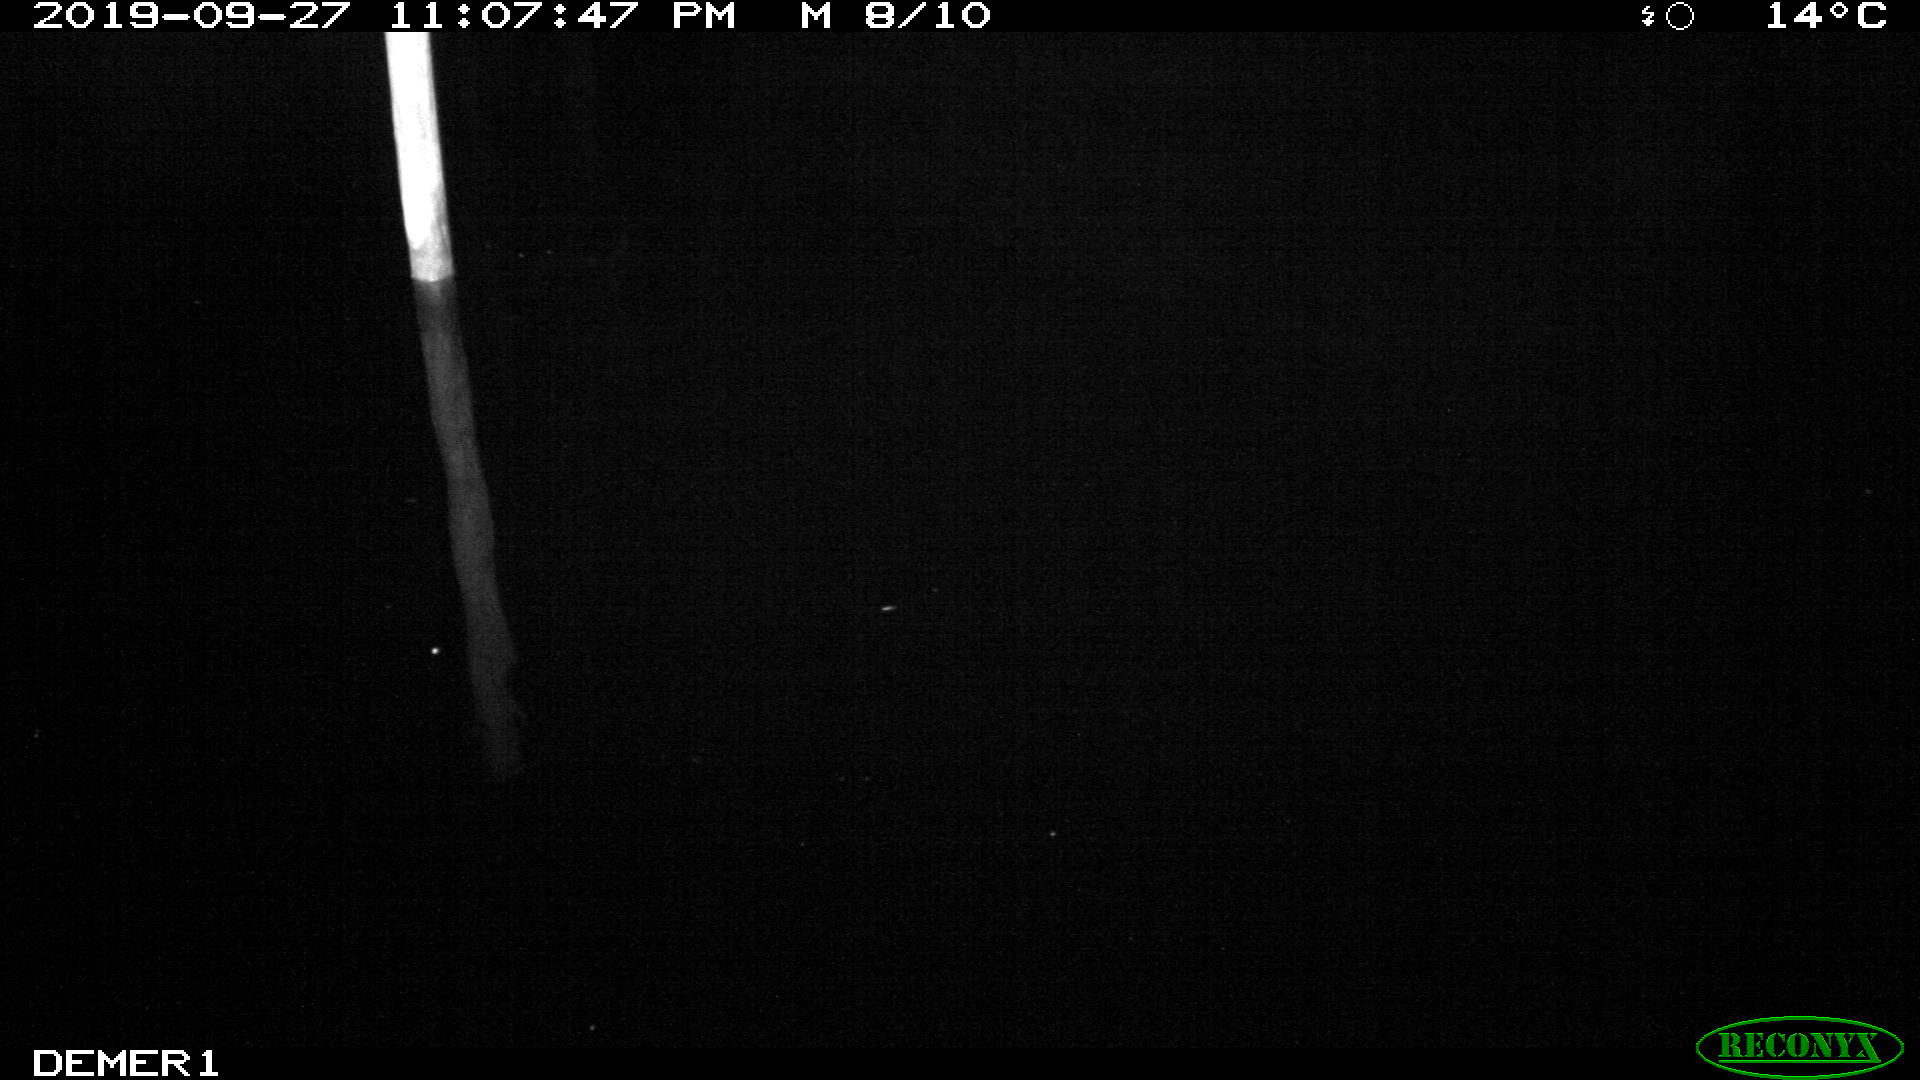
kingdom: Animalia
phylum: Chordata
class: Aves
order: Anseriformes
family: Anatidae
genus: Anas
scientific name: Anas platyrhynchos
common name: Mallard
